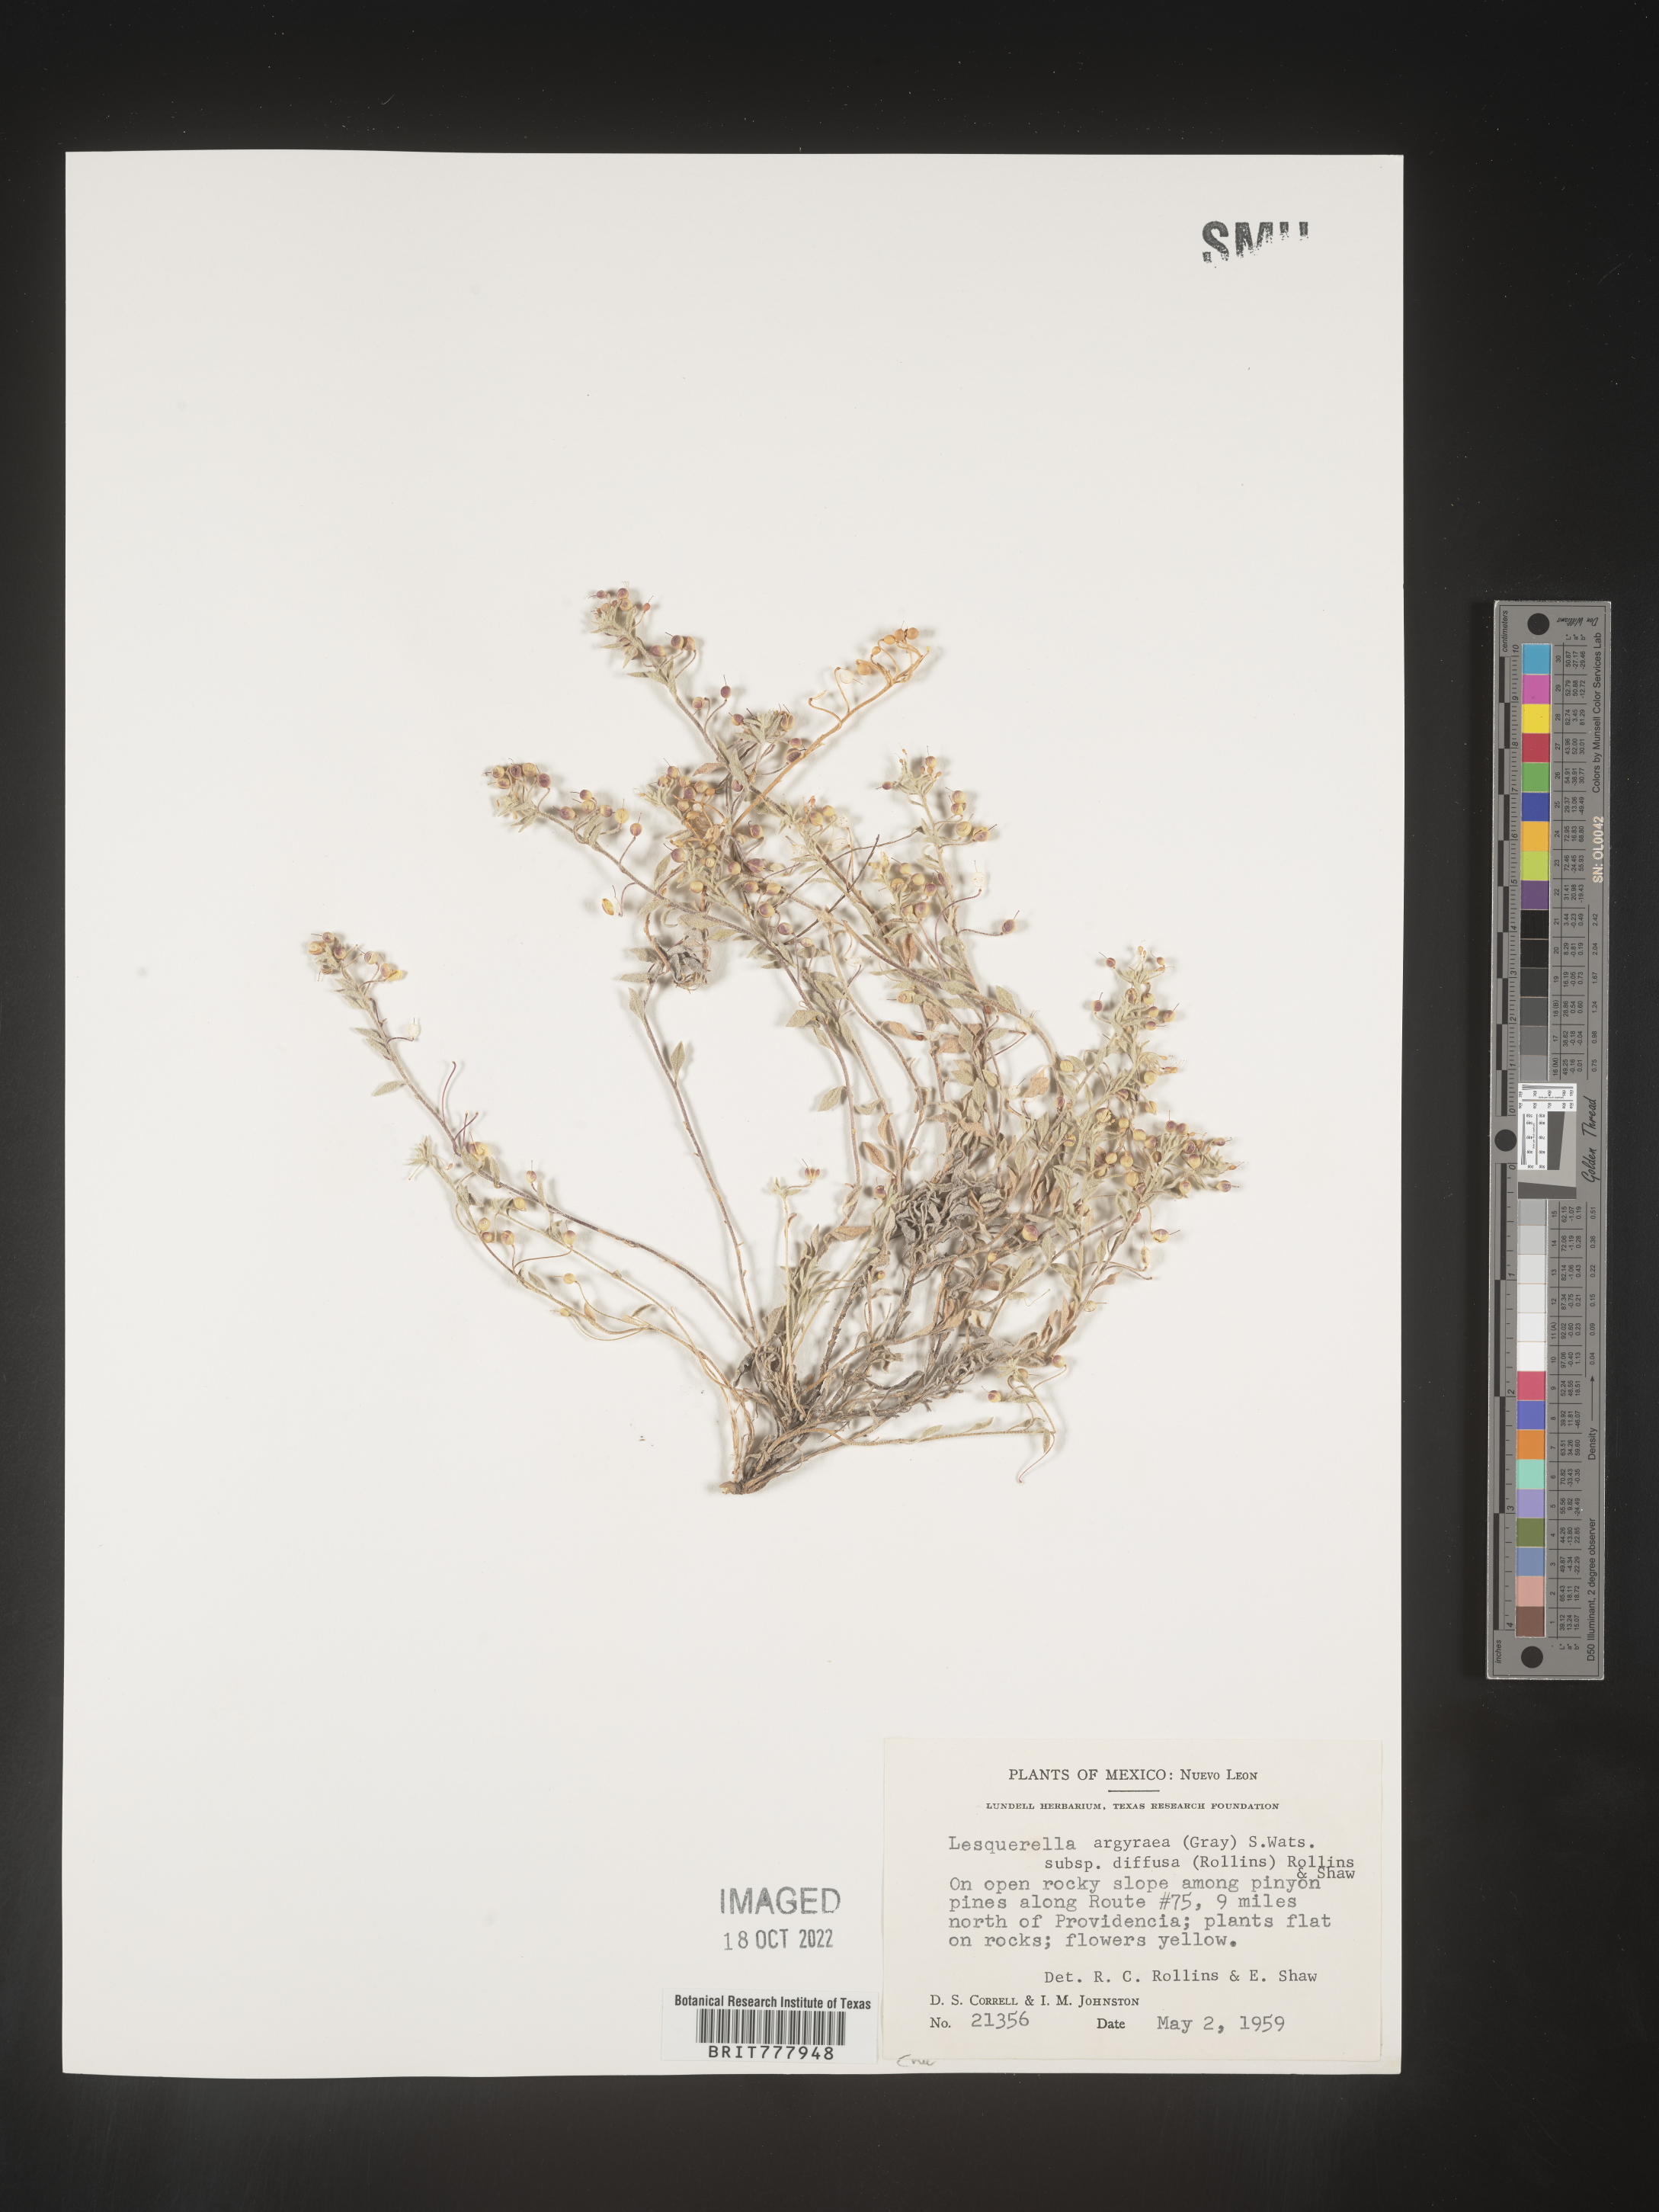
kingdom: Chromista
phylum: Cercozoa
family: Psammonobiotidae
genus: Lesquerella
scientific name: Lesquerella
